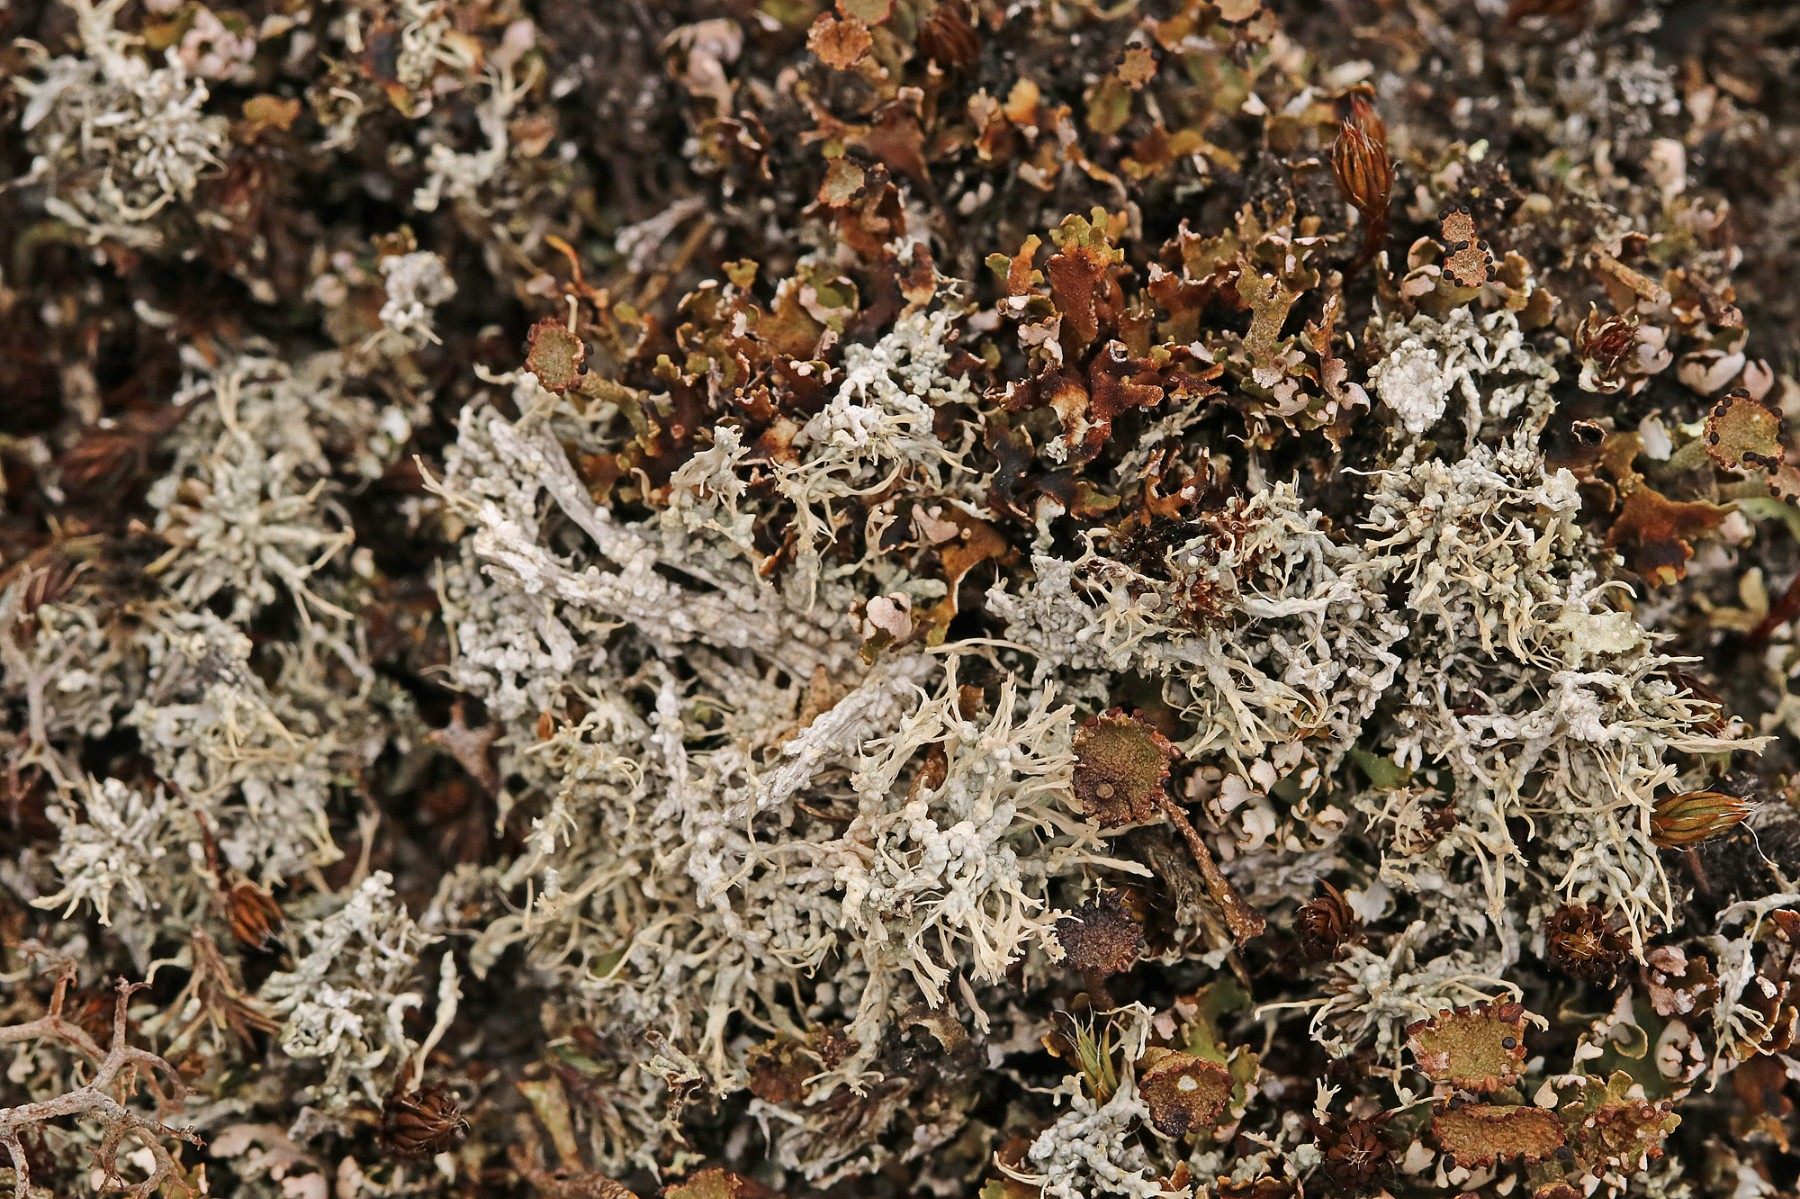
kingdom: Fungi
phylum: Ascomycota
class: Lecanoromycetes
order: Pertusariales
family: Ochrolechiaceae
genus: Ochrolechia
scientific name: Ochrolechia frigida
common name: fjeld-blegskivelav
